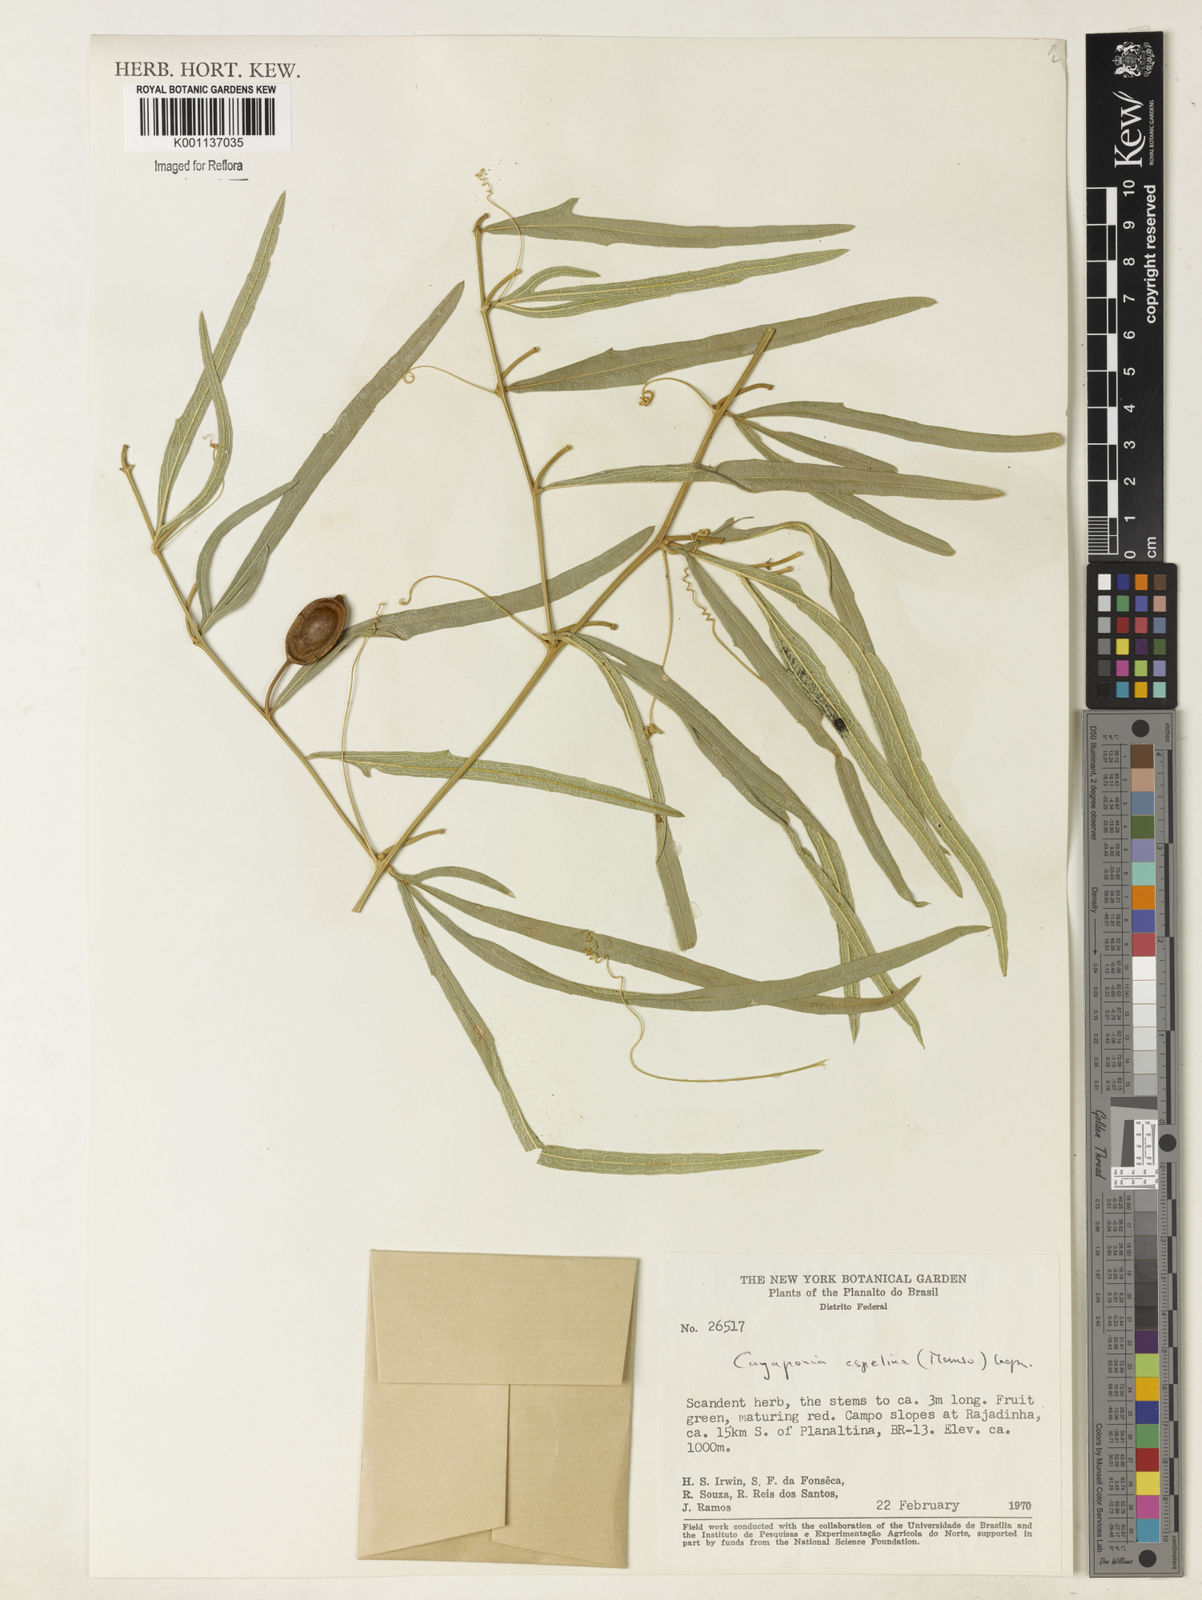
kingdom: Plantae
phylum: Tracheophyta
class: Magnoliopsida
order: Cucurbitales
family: Cucurbitaceae
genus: Cayaponia
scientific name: Cayaponia espelina
